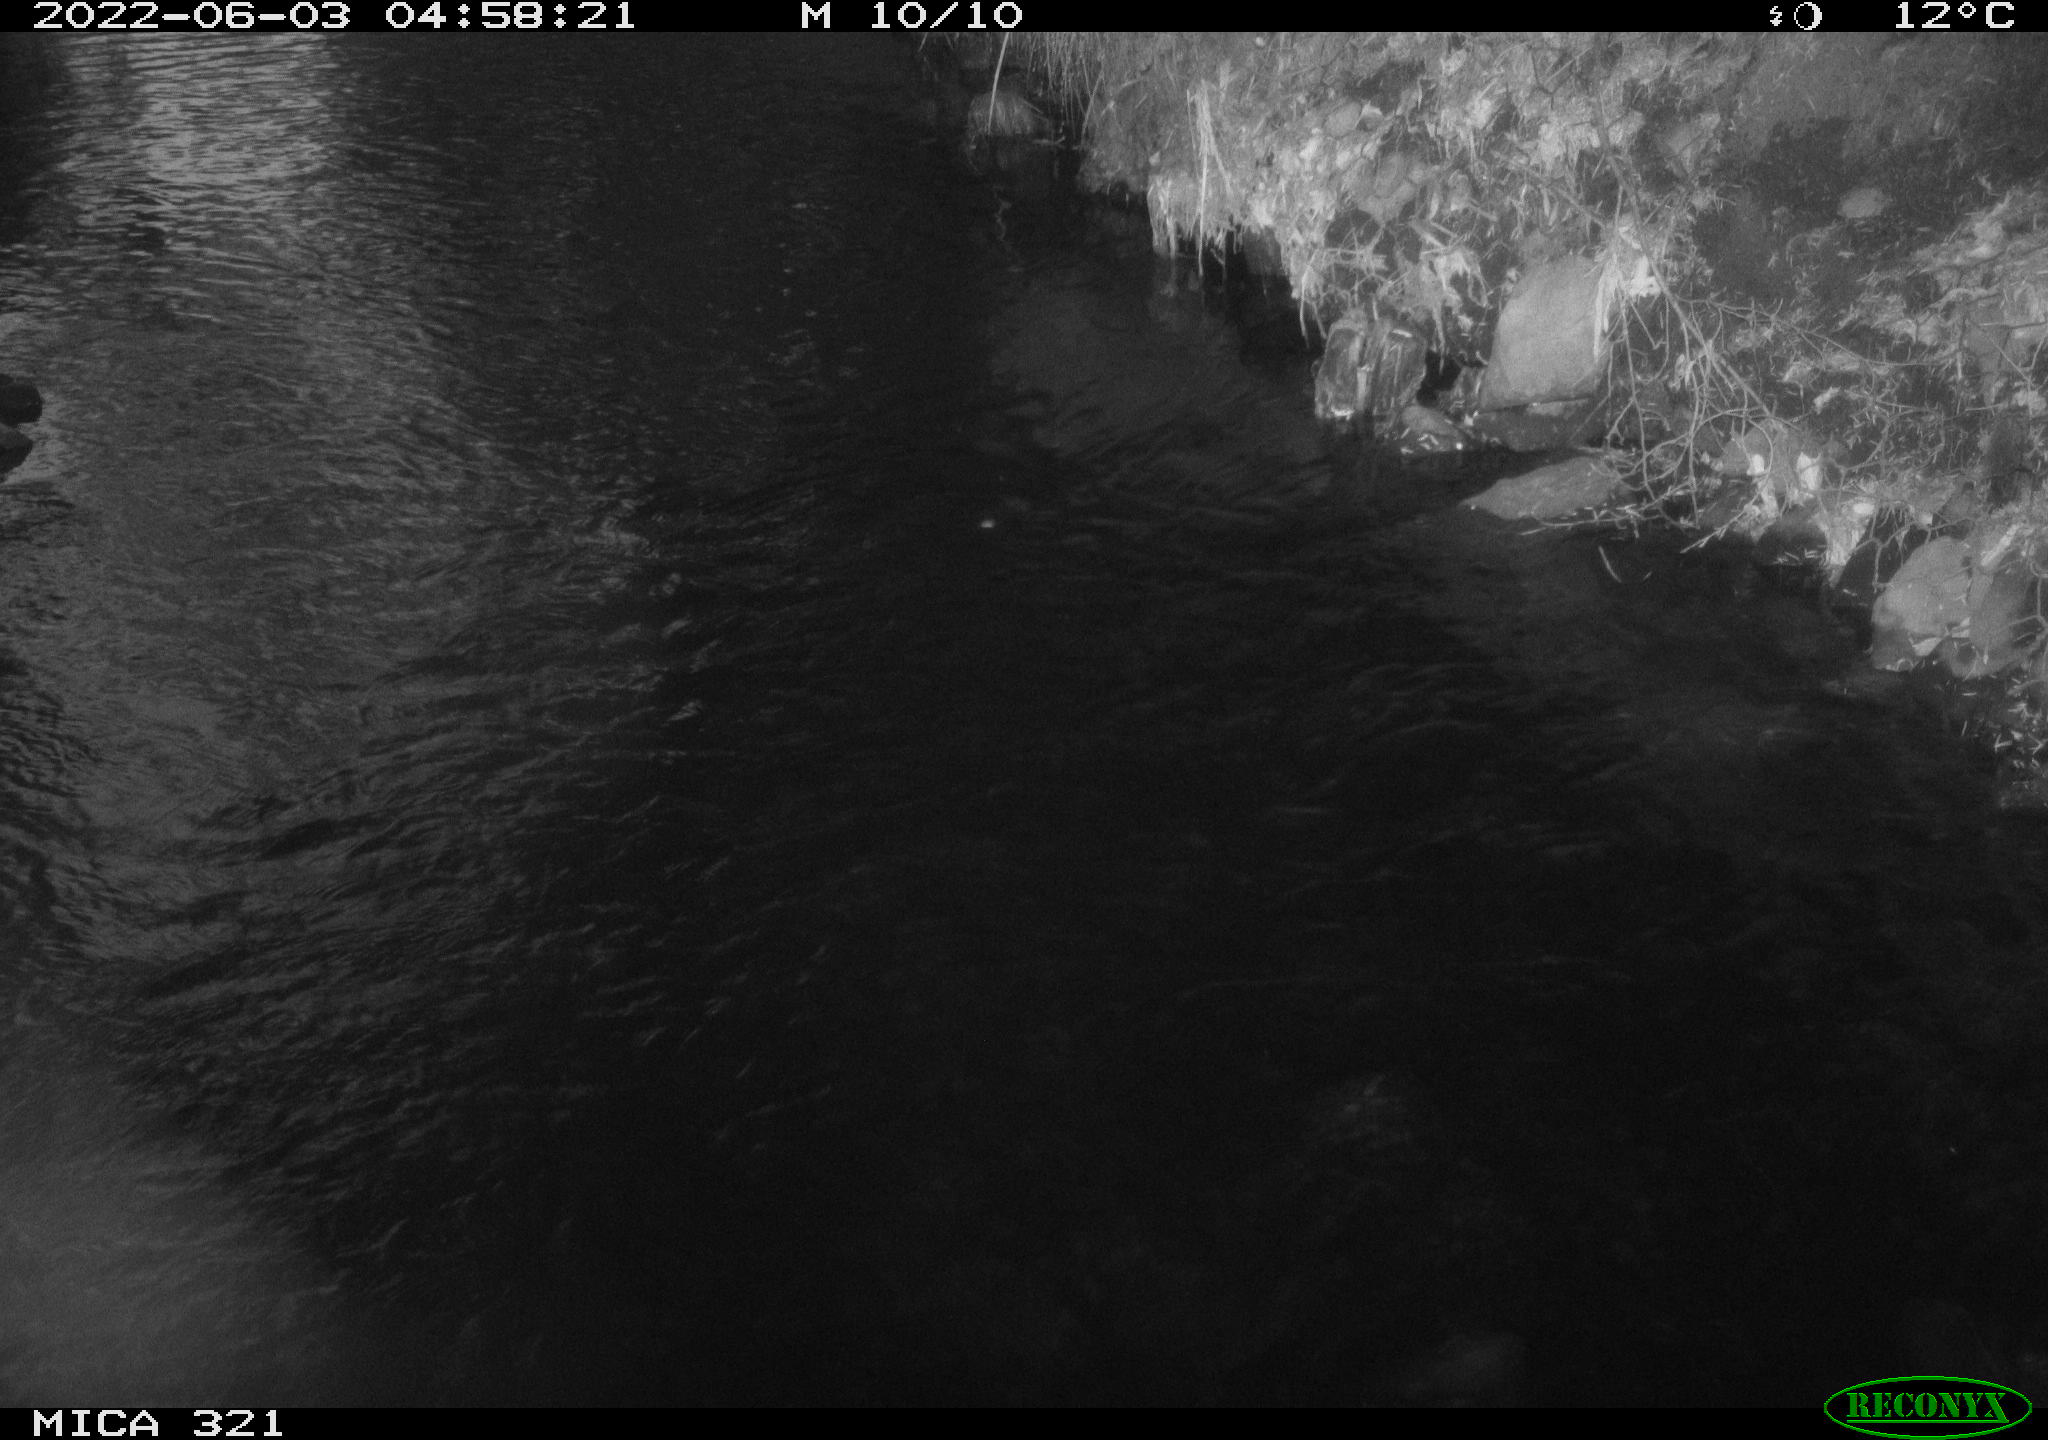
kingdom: Animalia
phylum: Chordata
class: Aves
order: Anseriformes
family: Anatidae
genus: Anas
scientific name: Anas platyrhynchos
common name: Mallard
